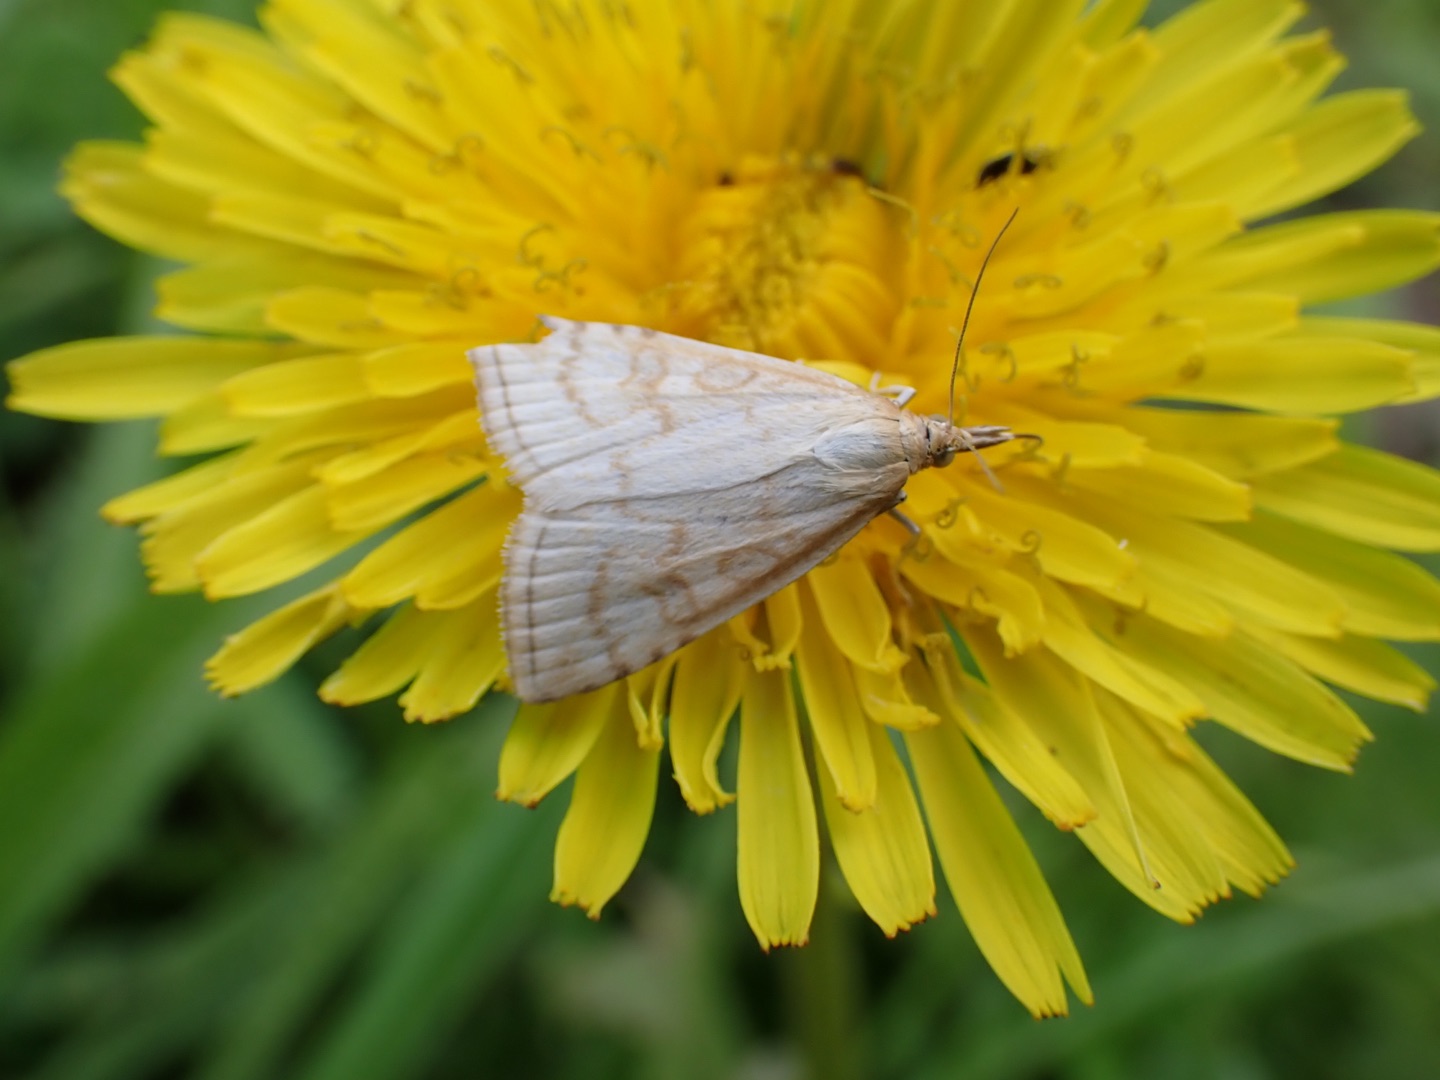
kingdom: Animalia
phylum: Arthropoda
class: Insecta
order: Lepidoptera
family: Crambidae
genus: Udea
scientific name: Udea lutealis
